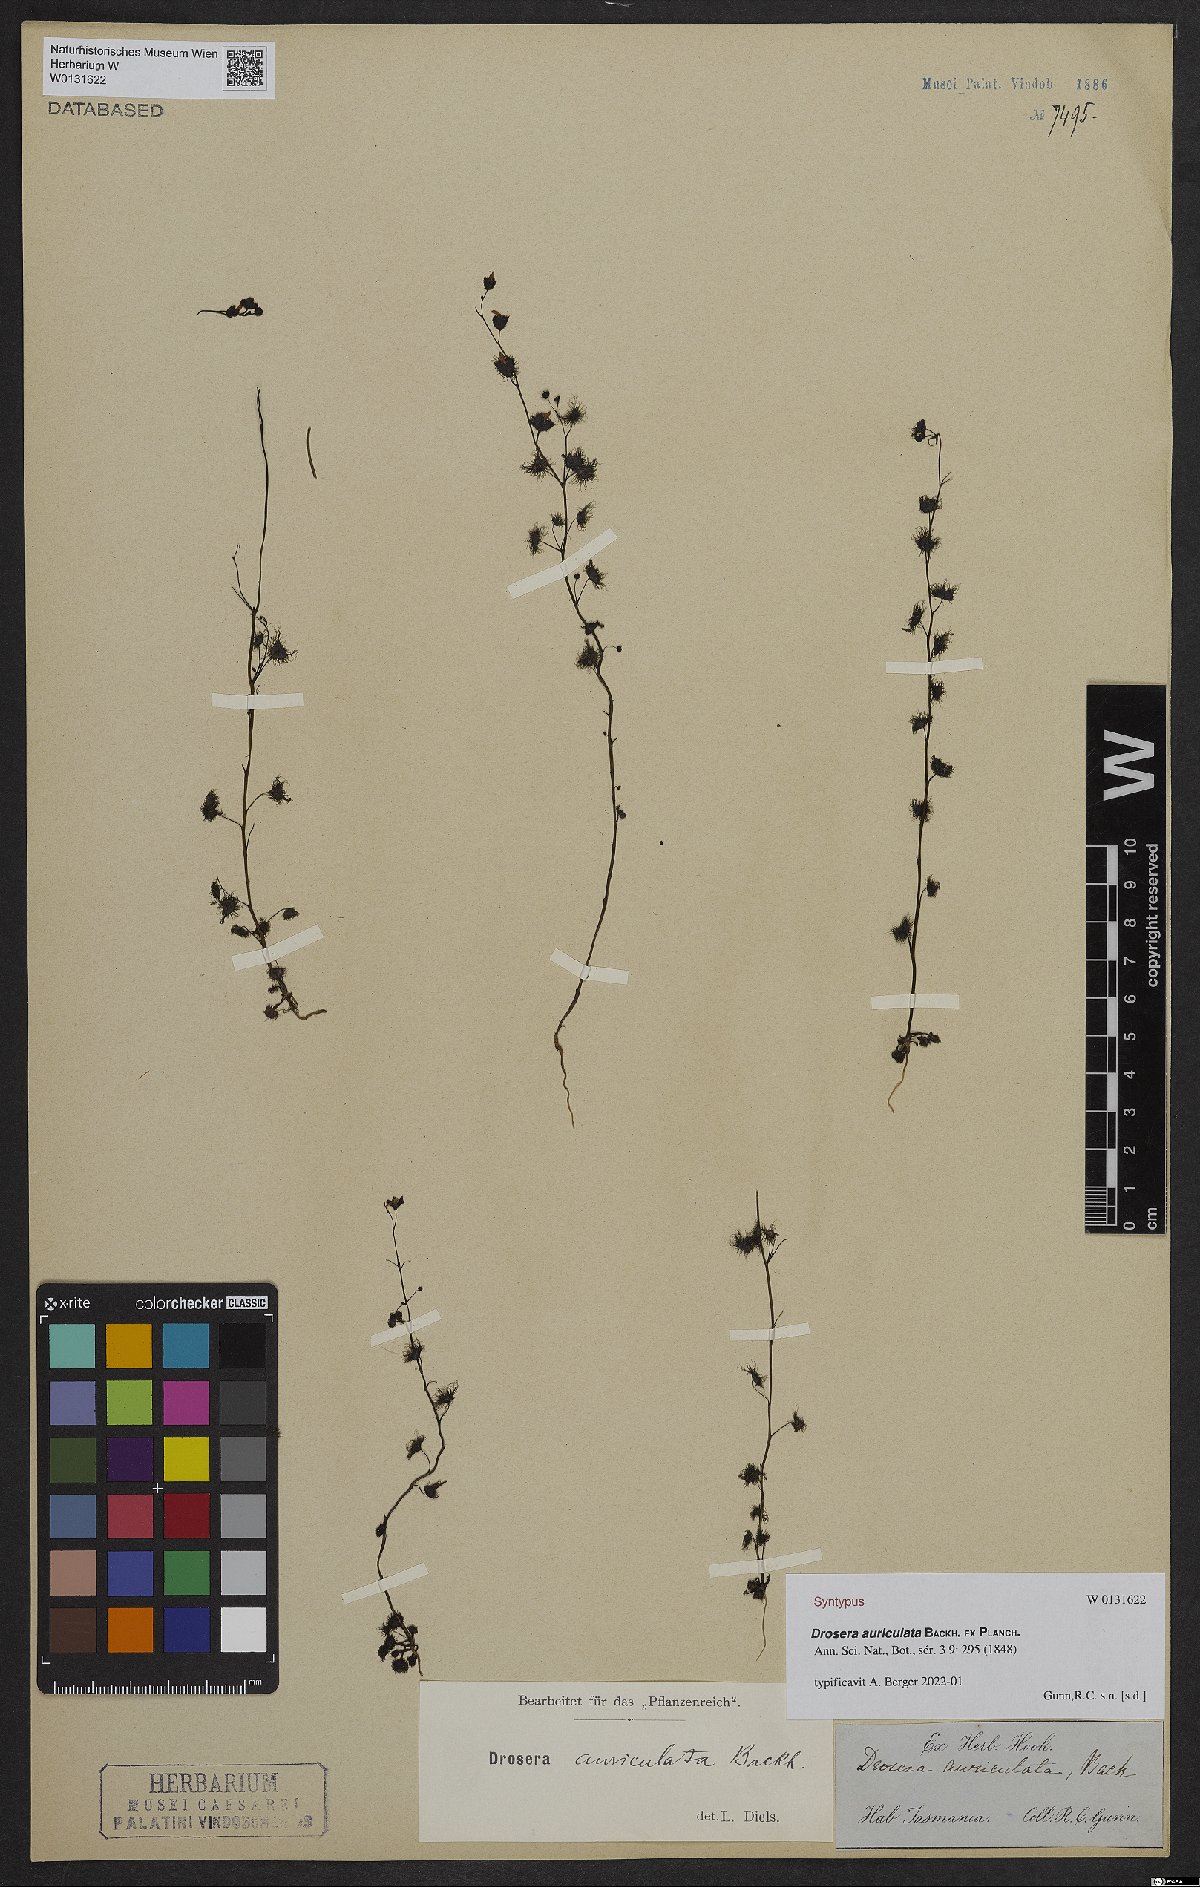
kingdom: Plantae
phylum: Tracheophyta
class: Magnoliopsida
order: Caryophyllales
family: Droseraceae
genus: Drosera
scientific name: Drosera peltata
